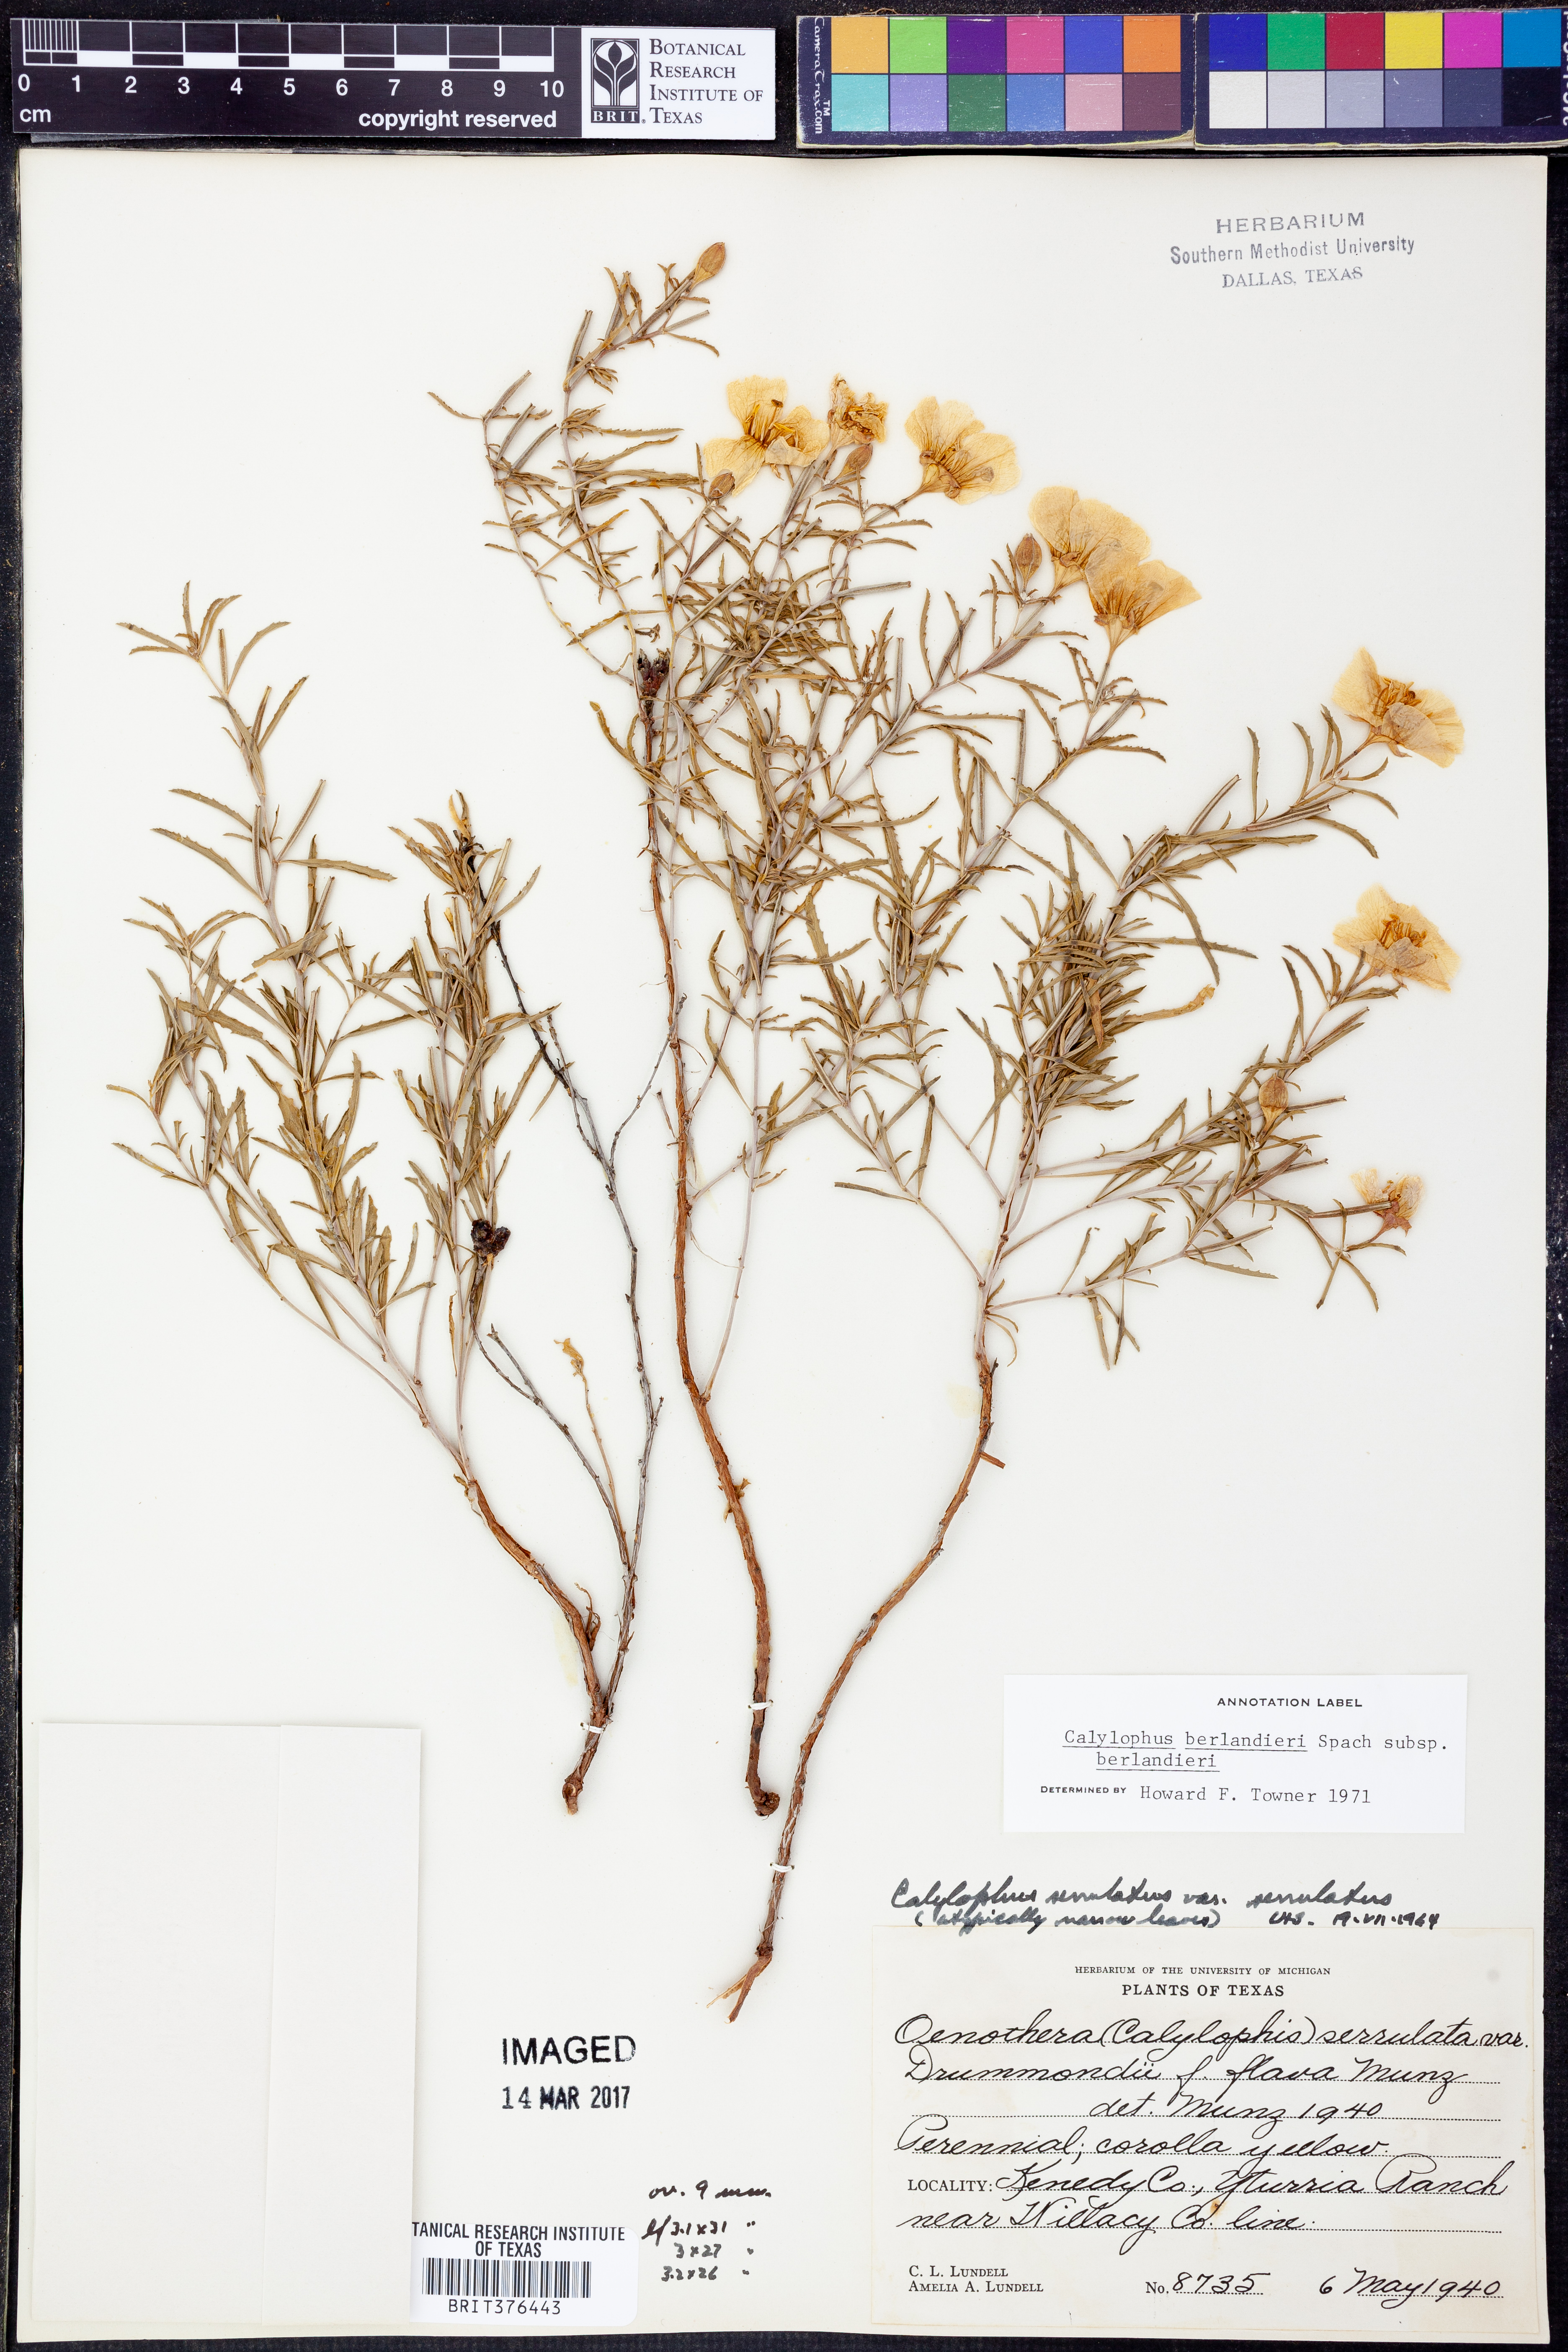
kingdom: Plantae
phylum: Tracheophyta
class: Magnoliopsida
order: Myrtales
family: Onagraceae
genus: Oenothera
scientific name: Oenothera capillifolia
